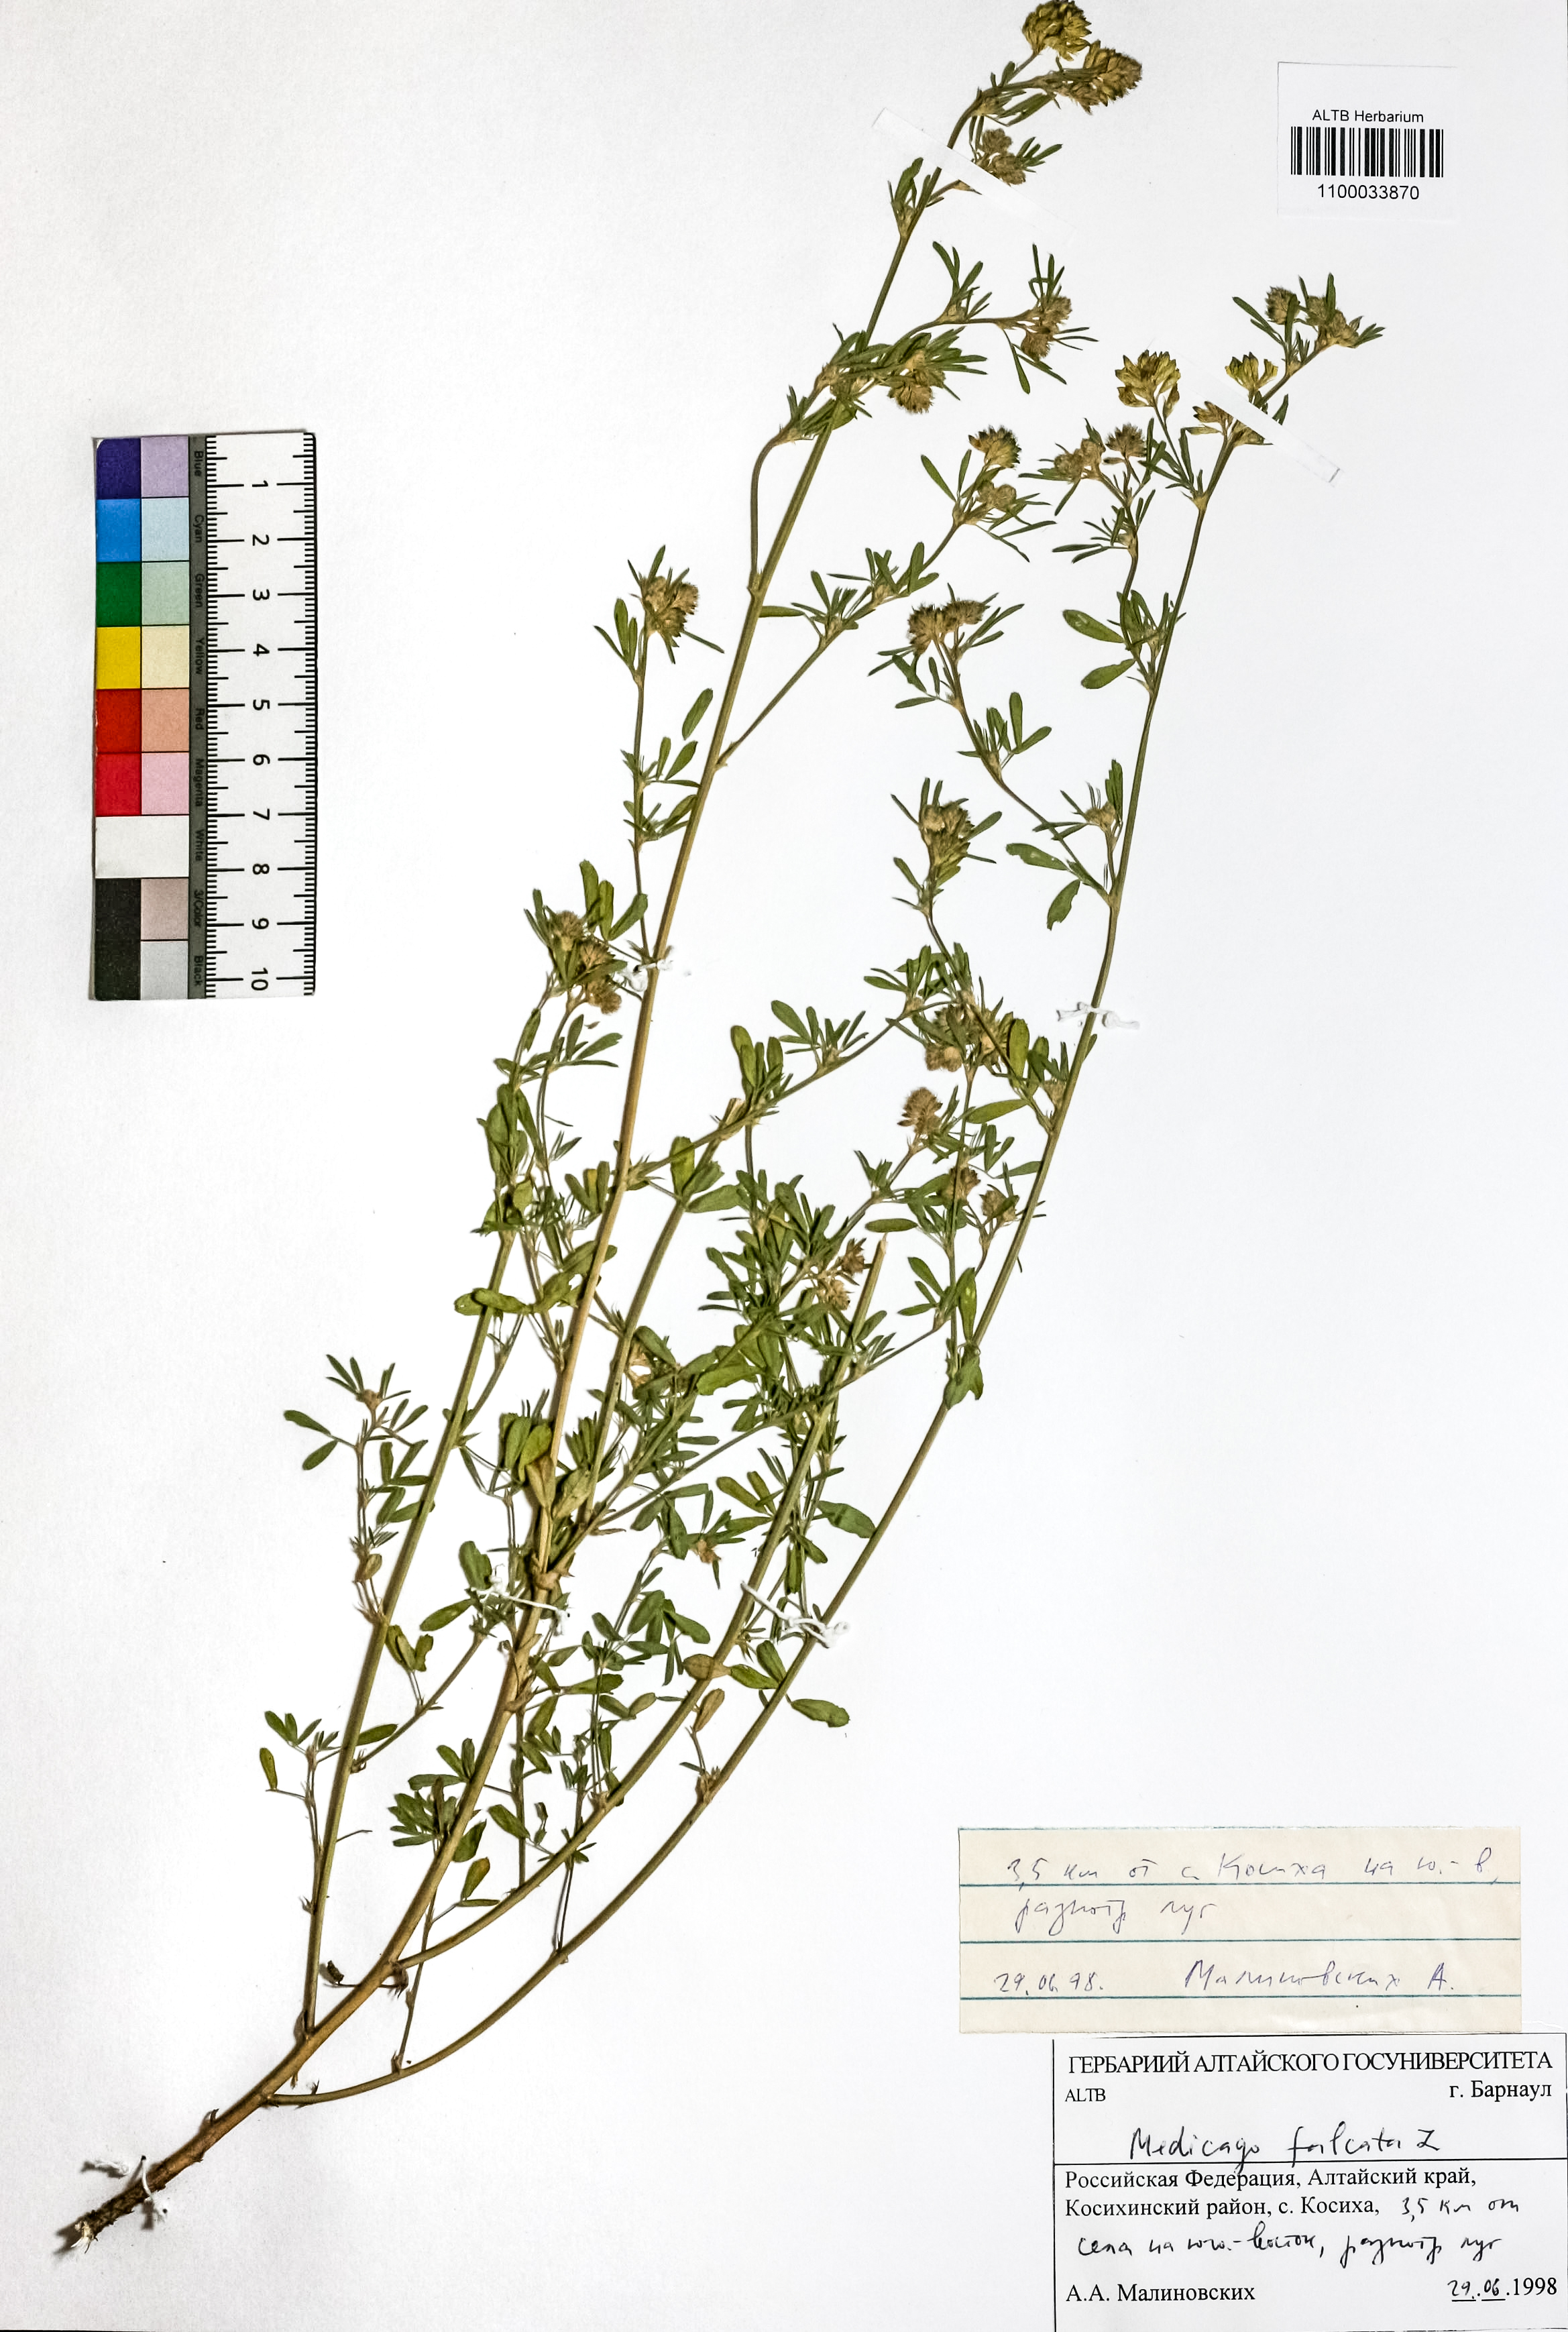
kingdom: Plantae
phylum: Tracheophyta
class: Magnoliopsida
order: Fabales
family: Fabaceae
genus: Medicago
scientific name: Medicago falcata
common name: Sickle medick
